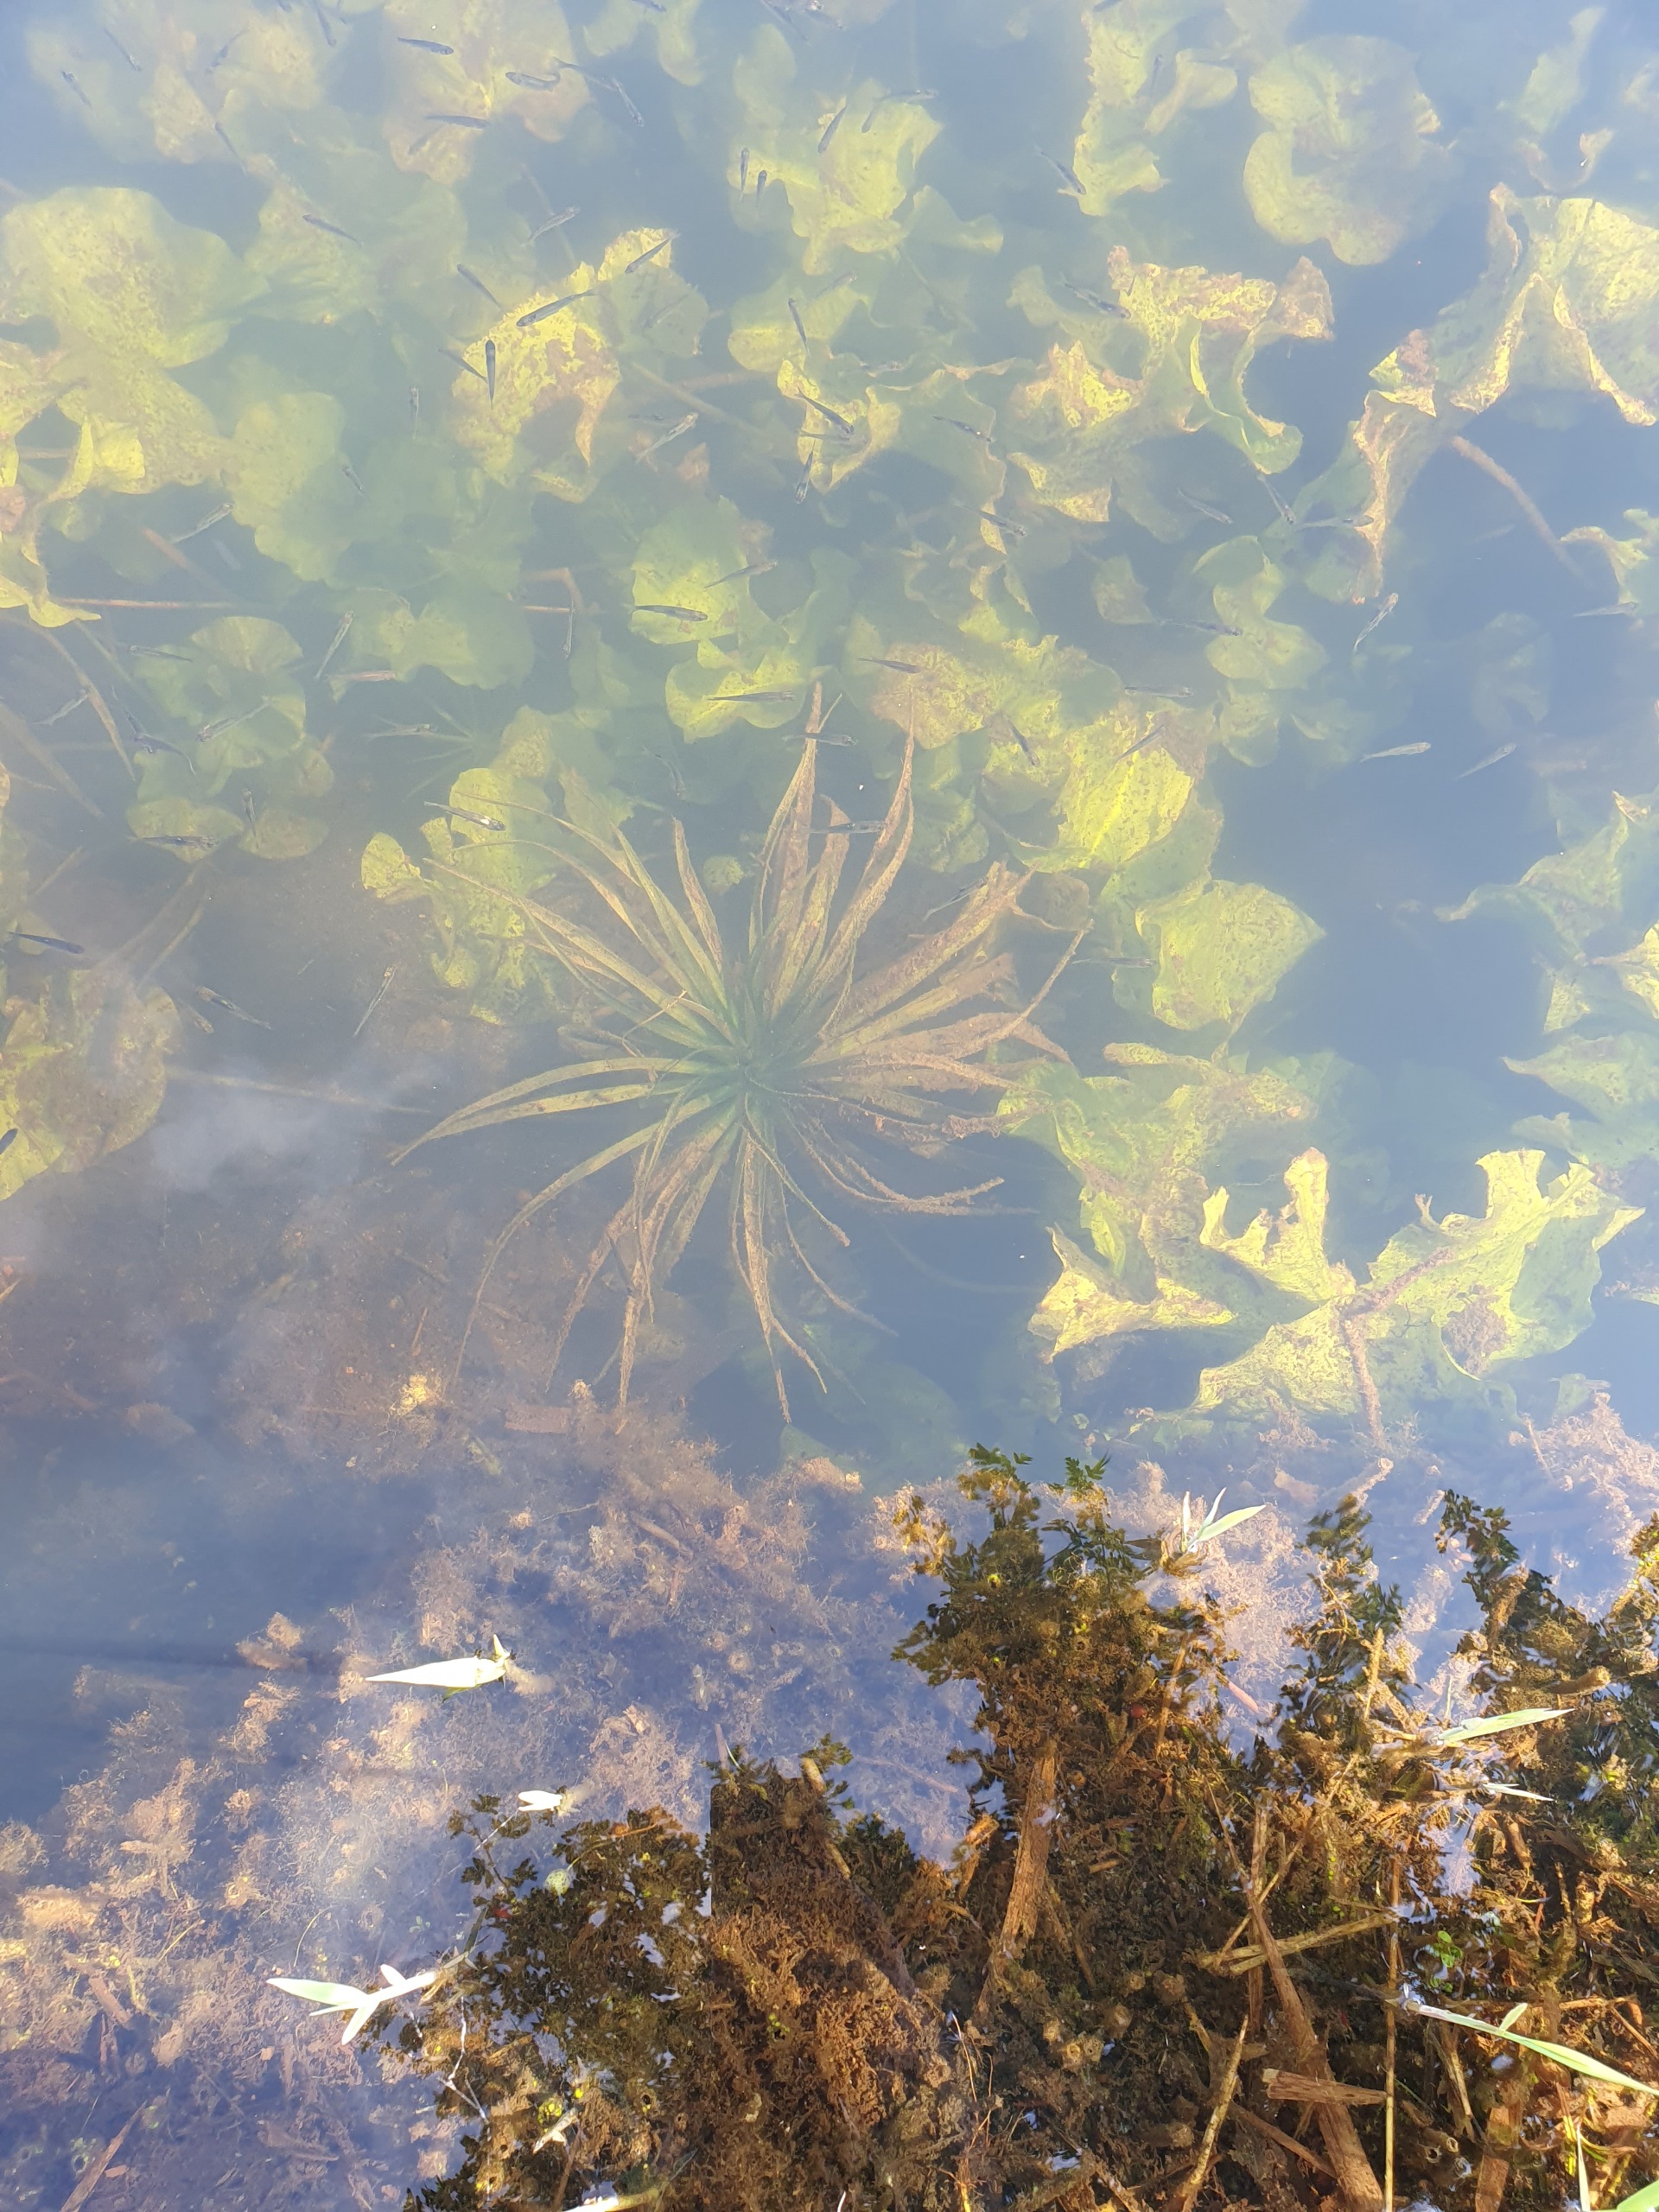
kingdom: Plantae
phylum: Tracheophyta
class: Liliopsida
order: Alismatales
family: Hydrocharitaceae
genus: Stratiotes
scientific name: Stratiotes aloides
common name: Krebseklo
